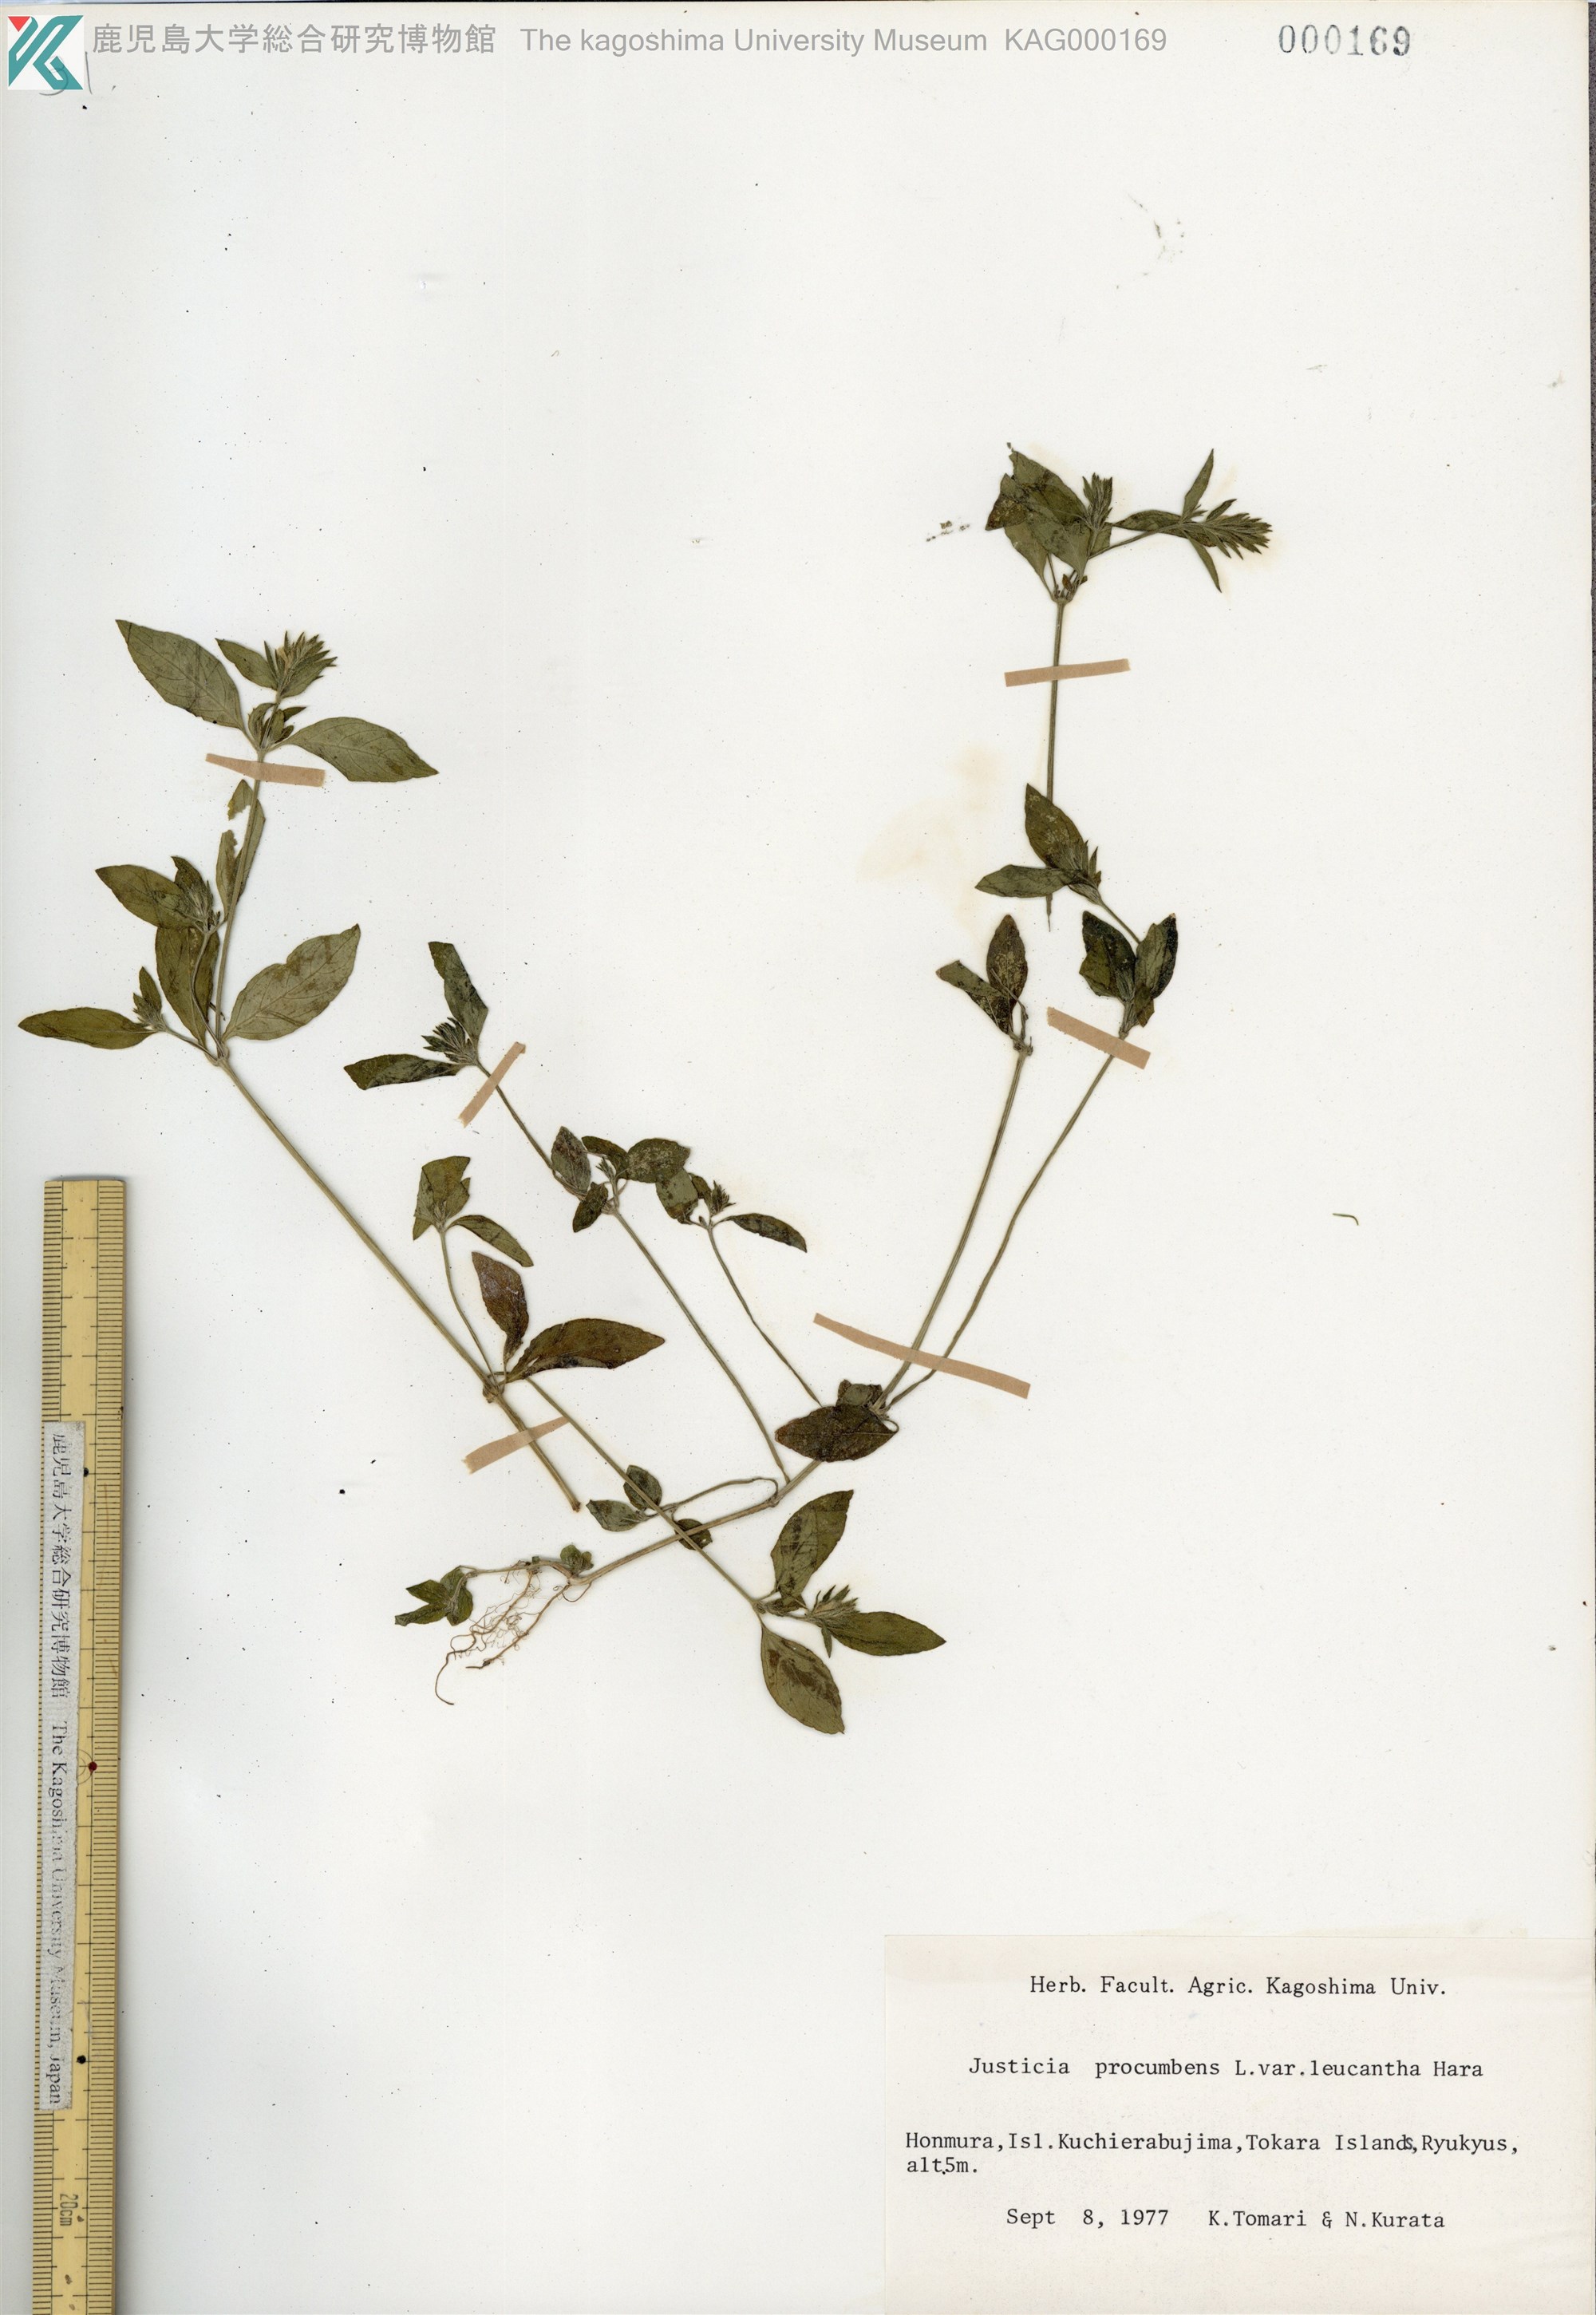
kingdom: Plantae
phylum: Tracheophyta
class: Magnoliopsida
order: Lamiales
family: Acanthaceae
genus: Rostellularia
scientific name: Rostellularia procumbens
